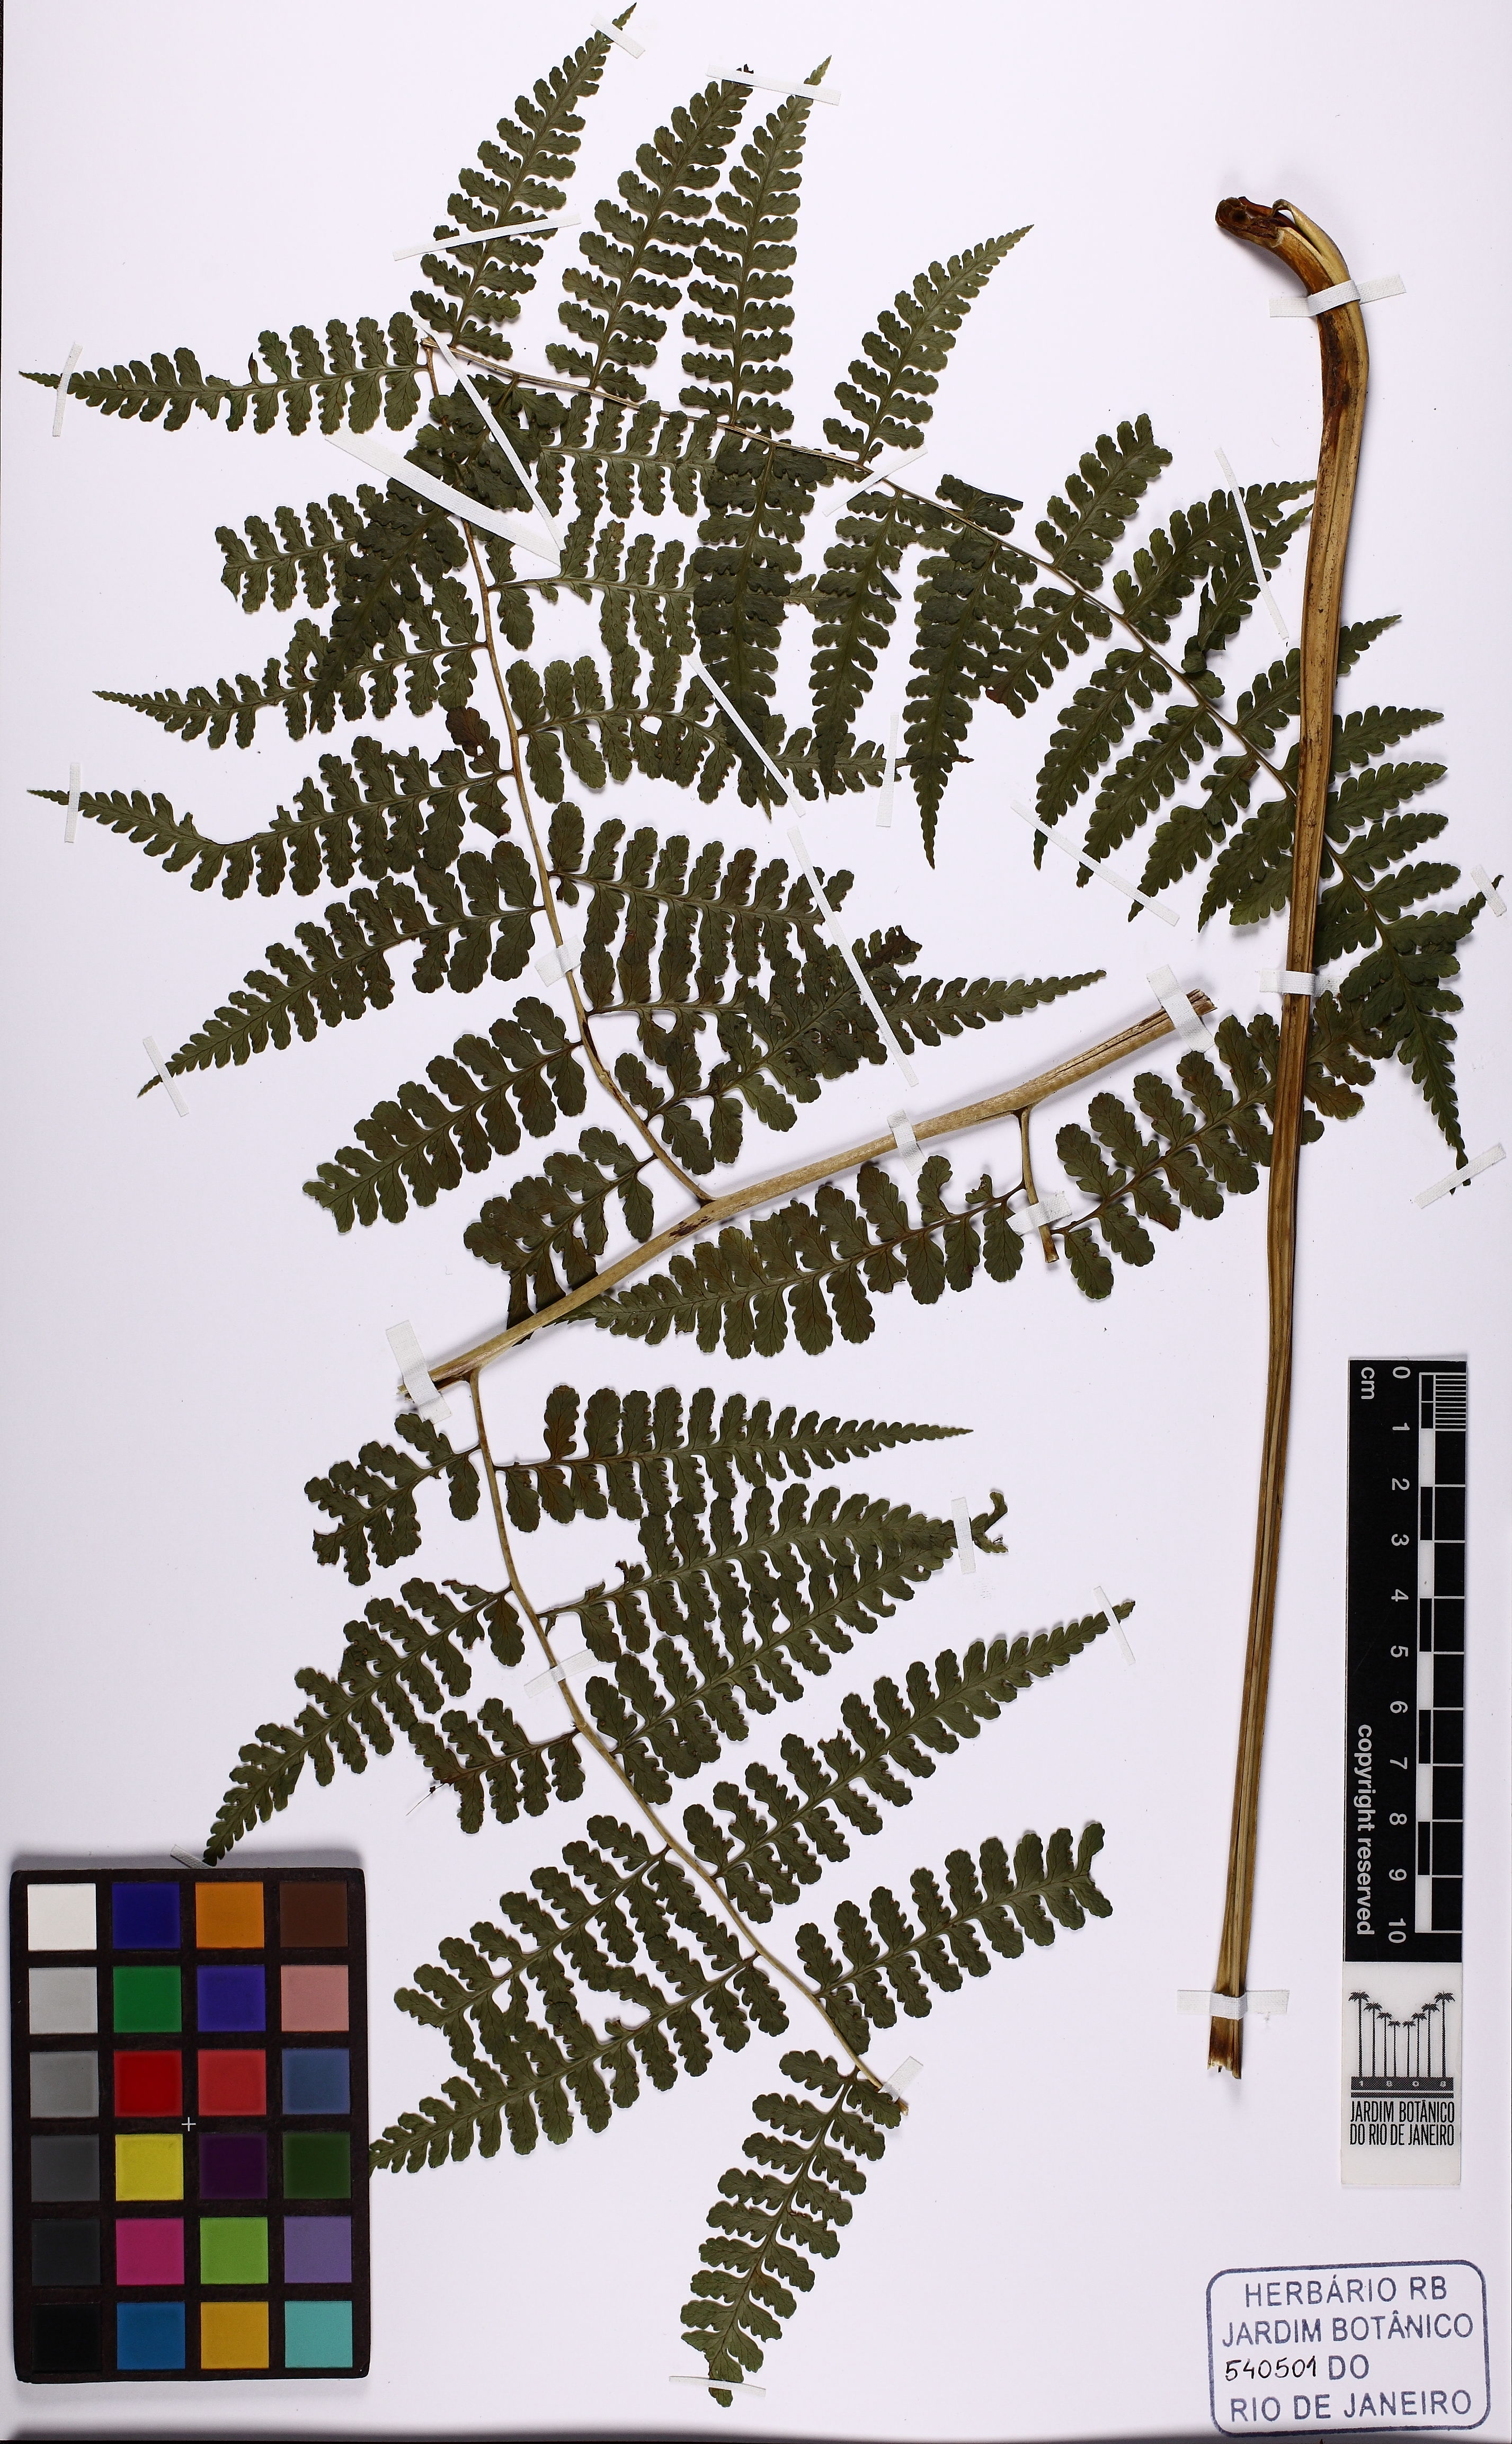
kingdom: Plantae
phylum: Tracheophyta
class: Polypodiopsida
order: Polypodiales
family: Dennstaedtiaceae
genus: Mucura
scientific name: Mucura globulifera
